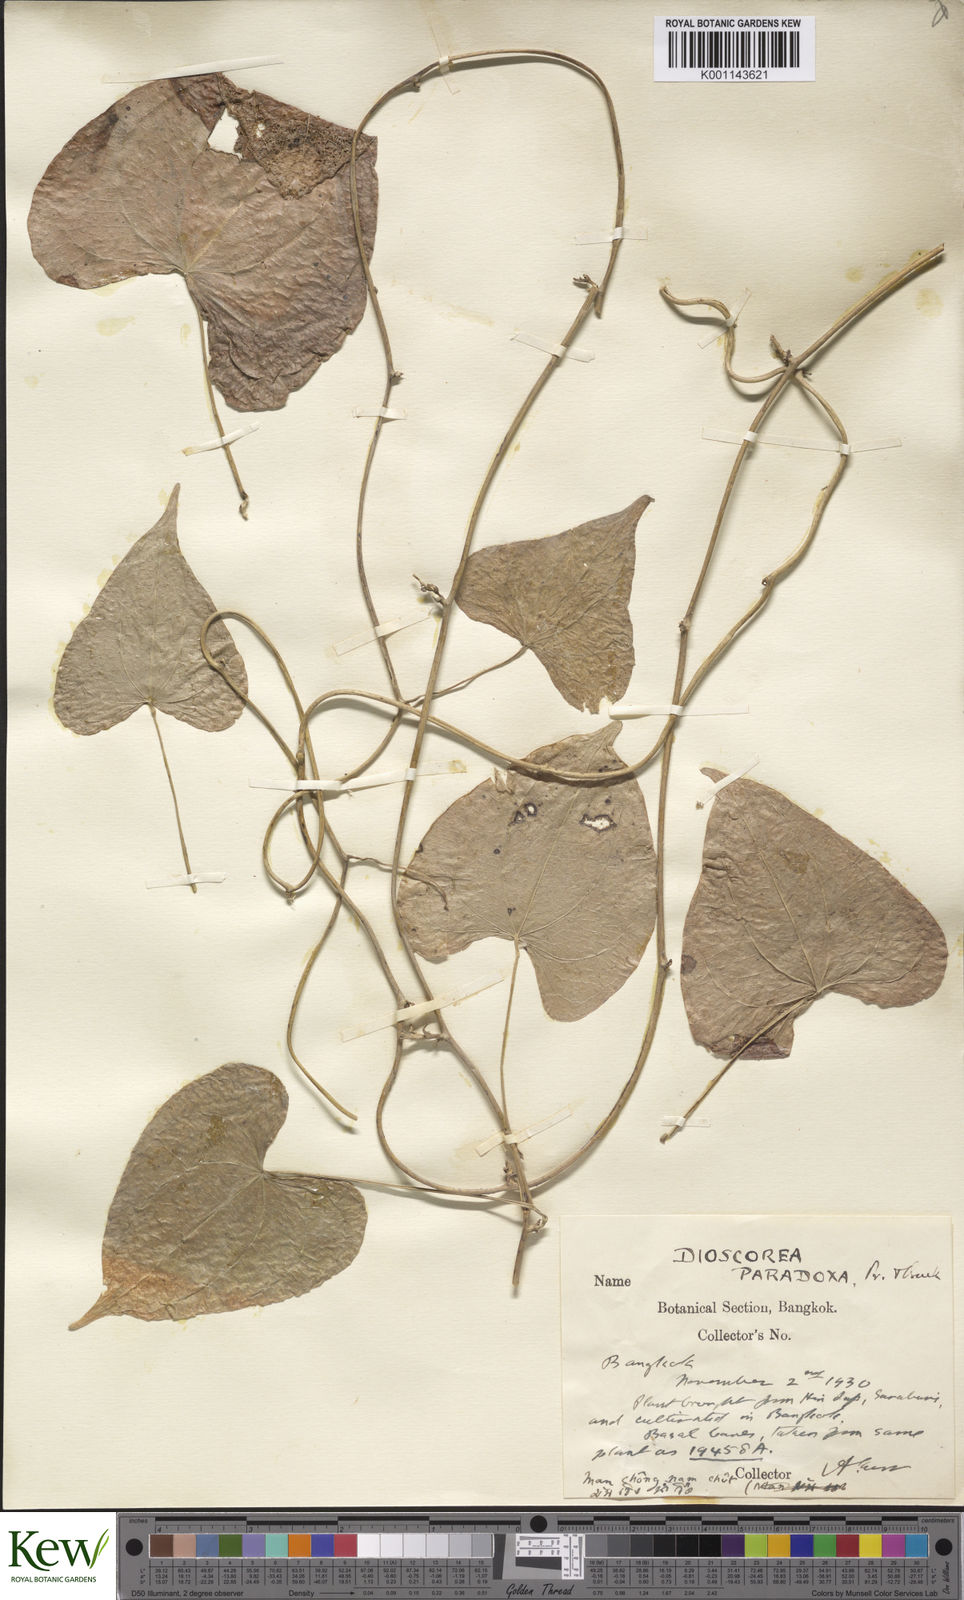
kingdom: Plantae
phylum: Tracheophyta
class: Liliopsida
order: Dioscoreales
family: Dioscoreaceae
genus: Dioscorea
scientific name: Dioscorea paradoxa
